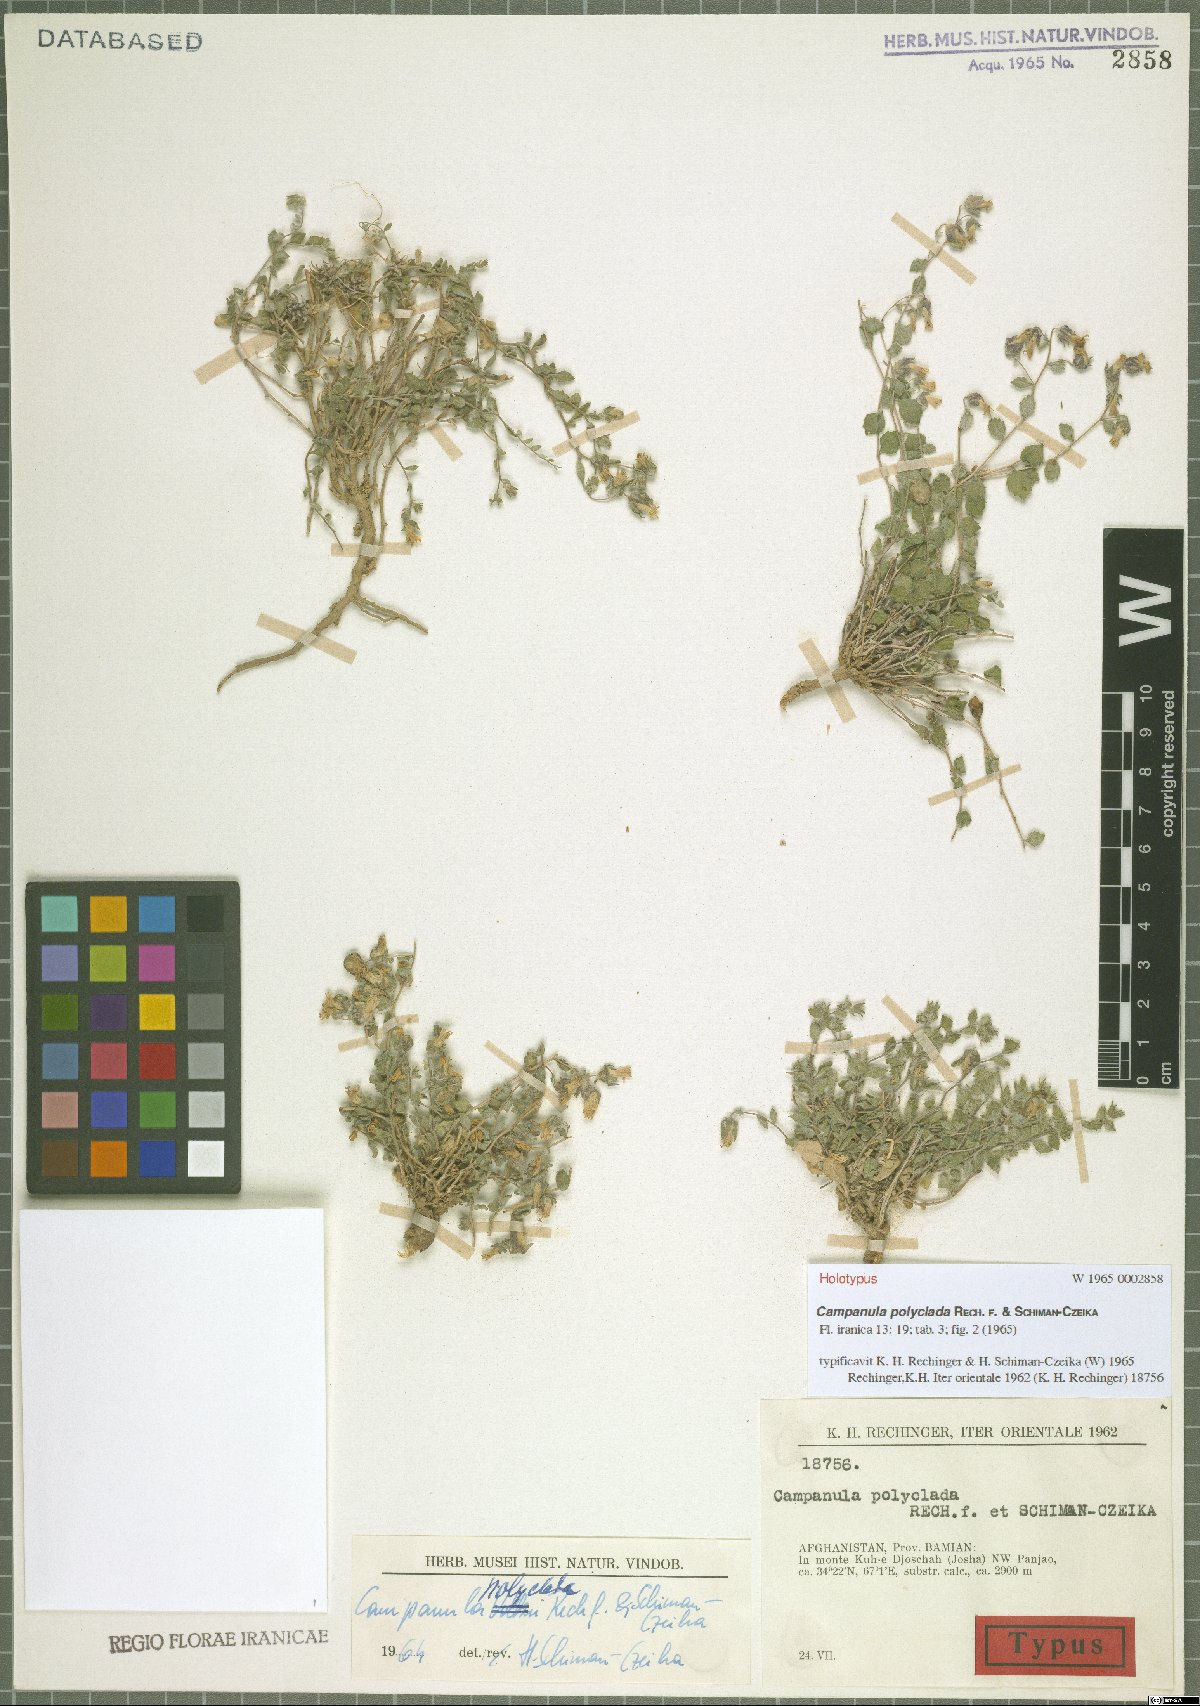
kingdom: Plantae
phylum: Tracheophyta
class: Magnoliopsida
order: Asterales
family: Campanulaceae
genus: Campanula
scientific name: Campanula polyclada
